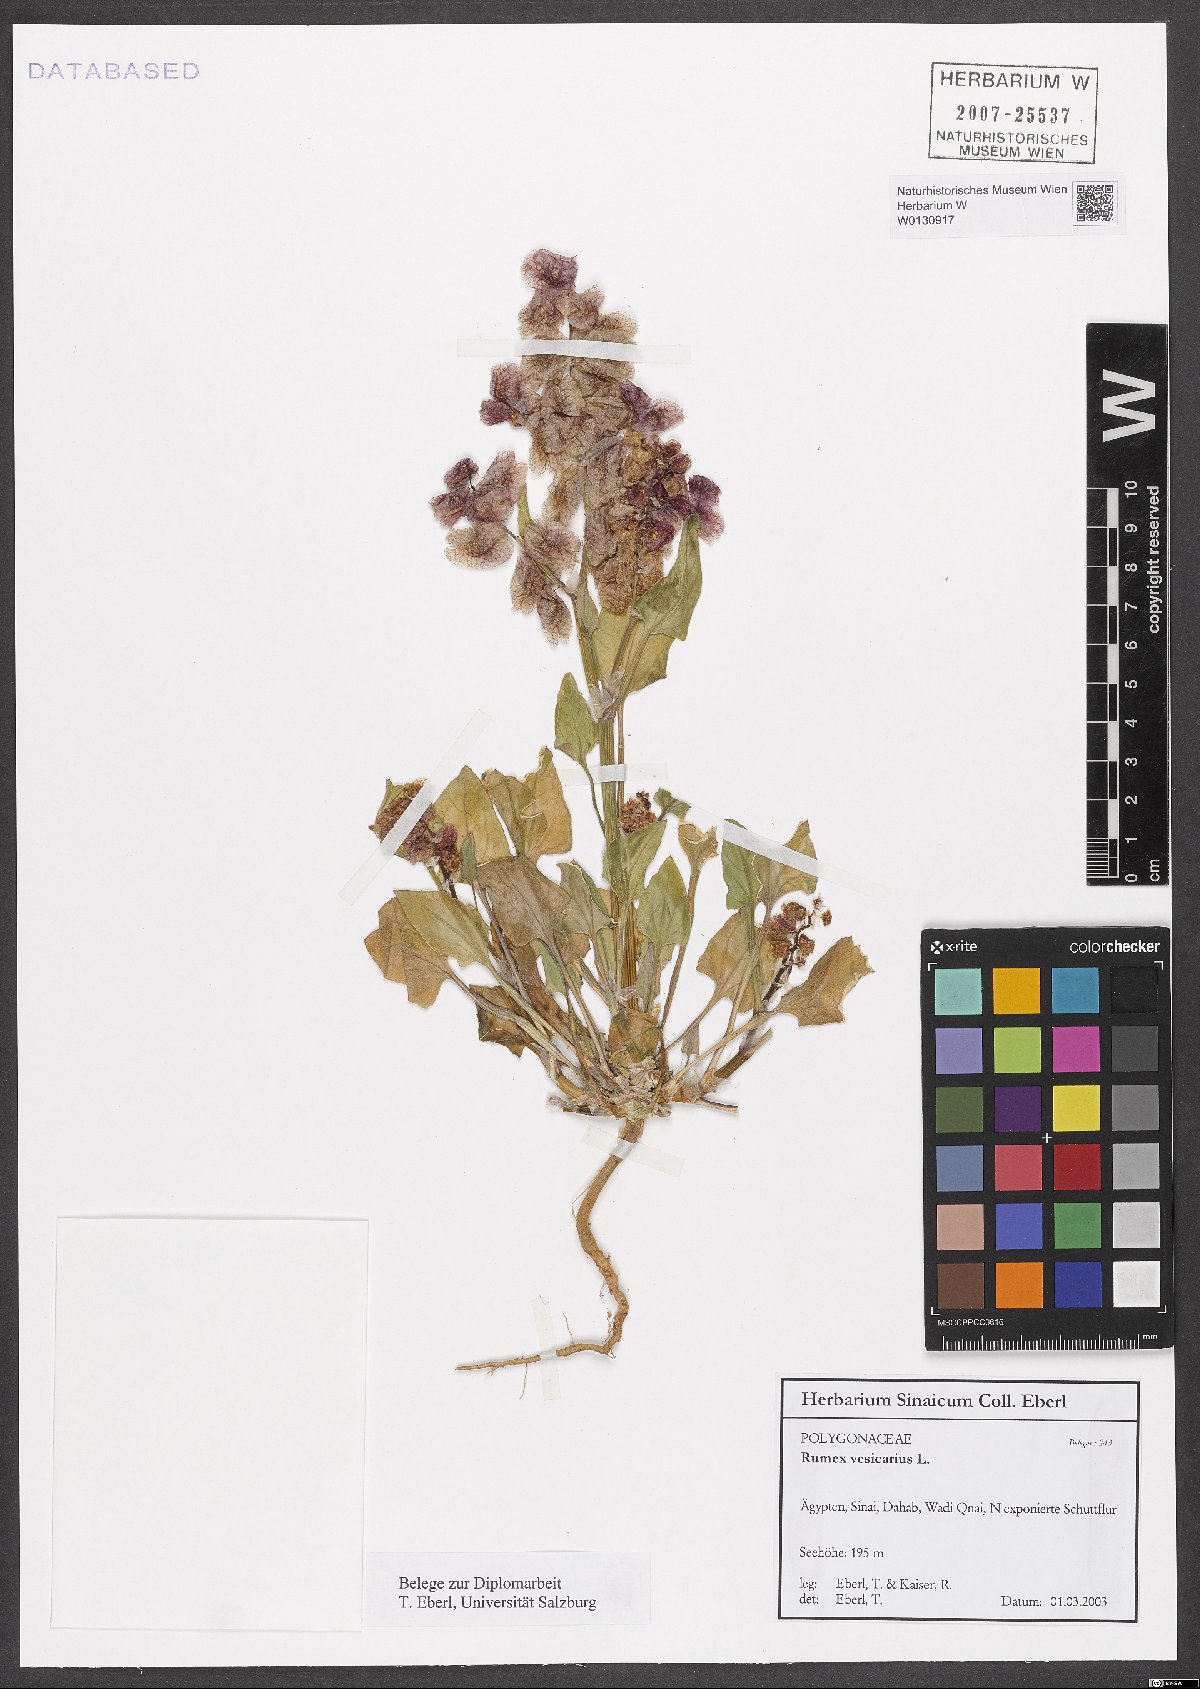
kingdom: Plantae
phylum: Tracheophyta
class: Magnoliopsida
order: Caryophyllales
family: Polygonaceae
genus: Rumex
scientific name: Rumex vesicarius
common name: Bladder dock
